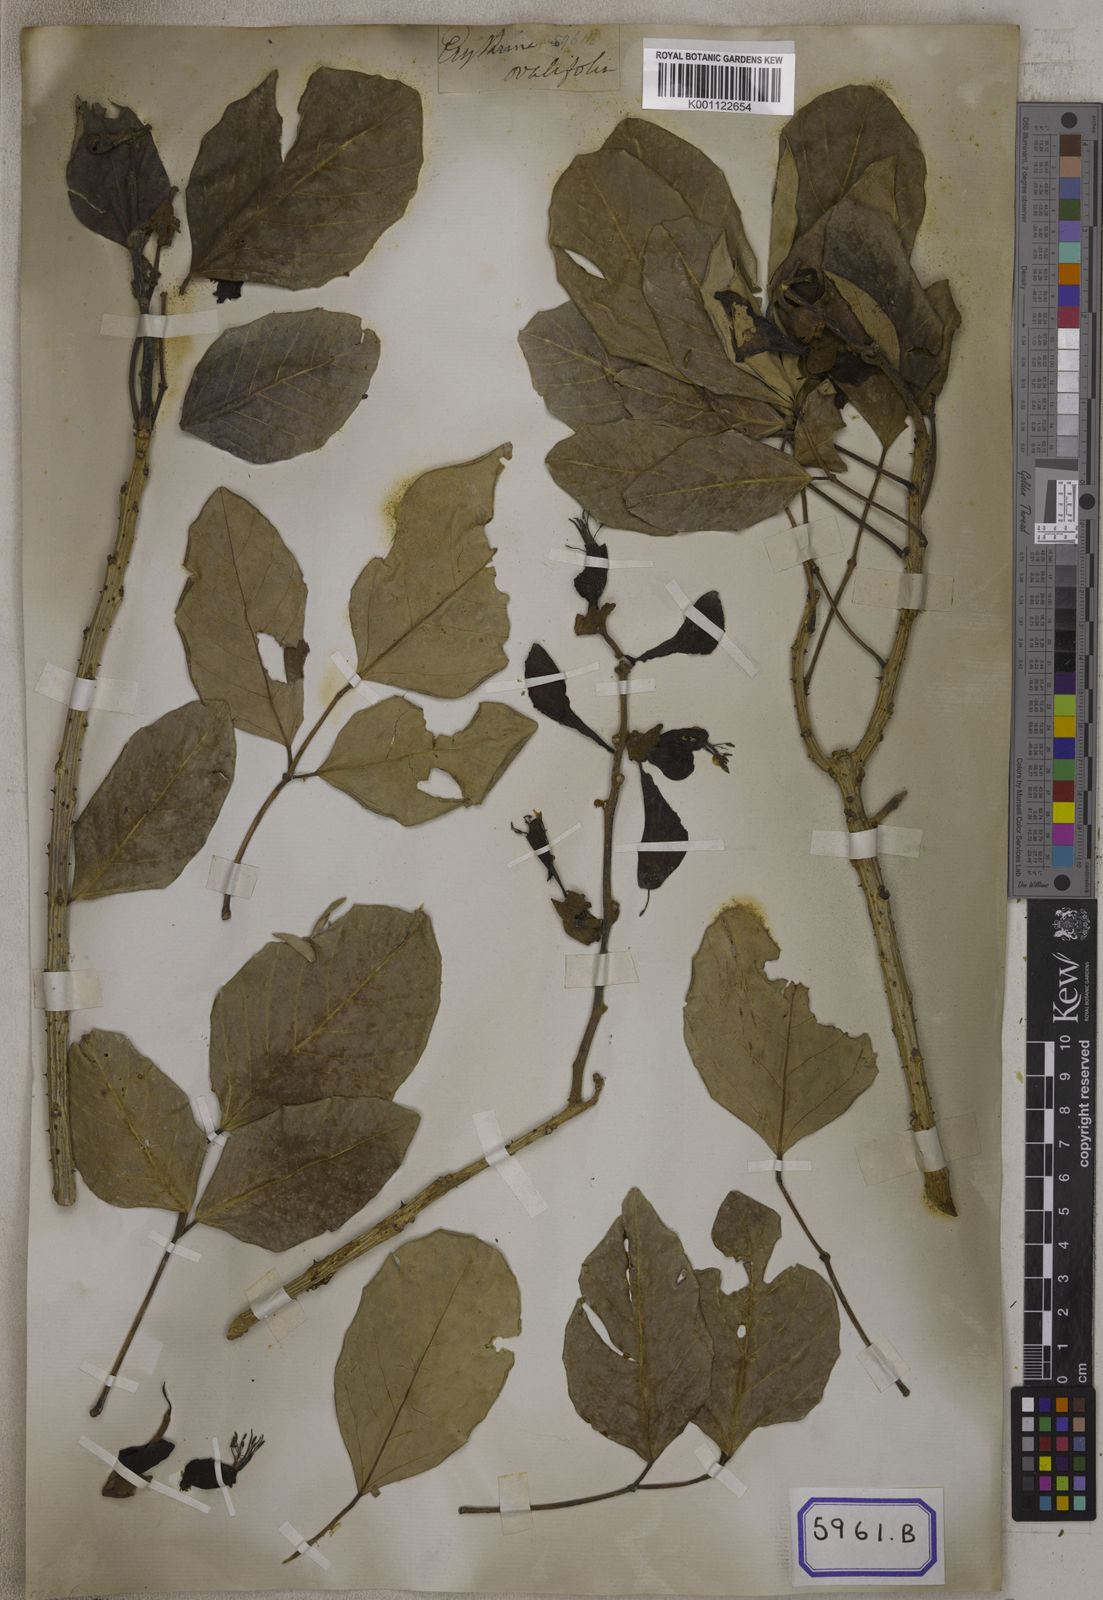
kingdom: Plantae
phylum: Tracheophyta
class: Magnoliopsida
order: Fabales
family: Fabaceae
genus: Erythrina
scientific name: Erythrina fusca
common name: Coral-bean
